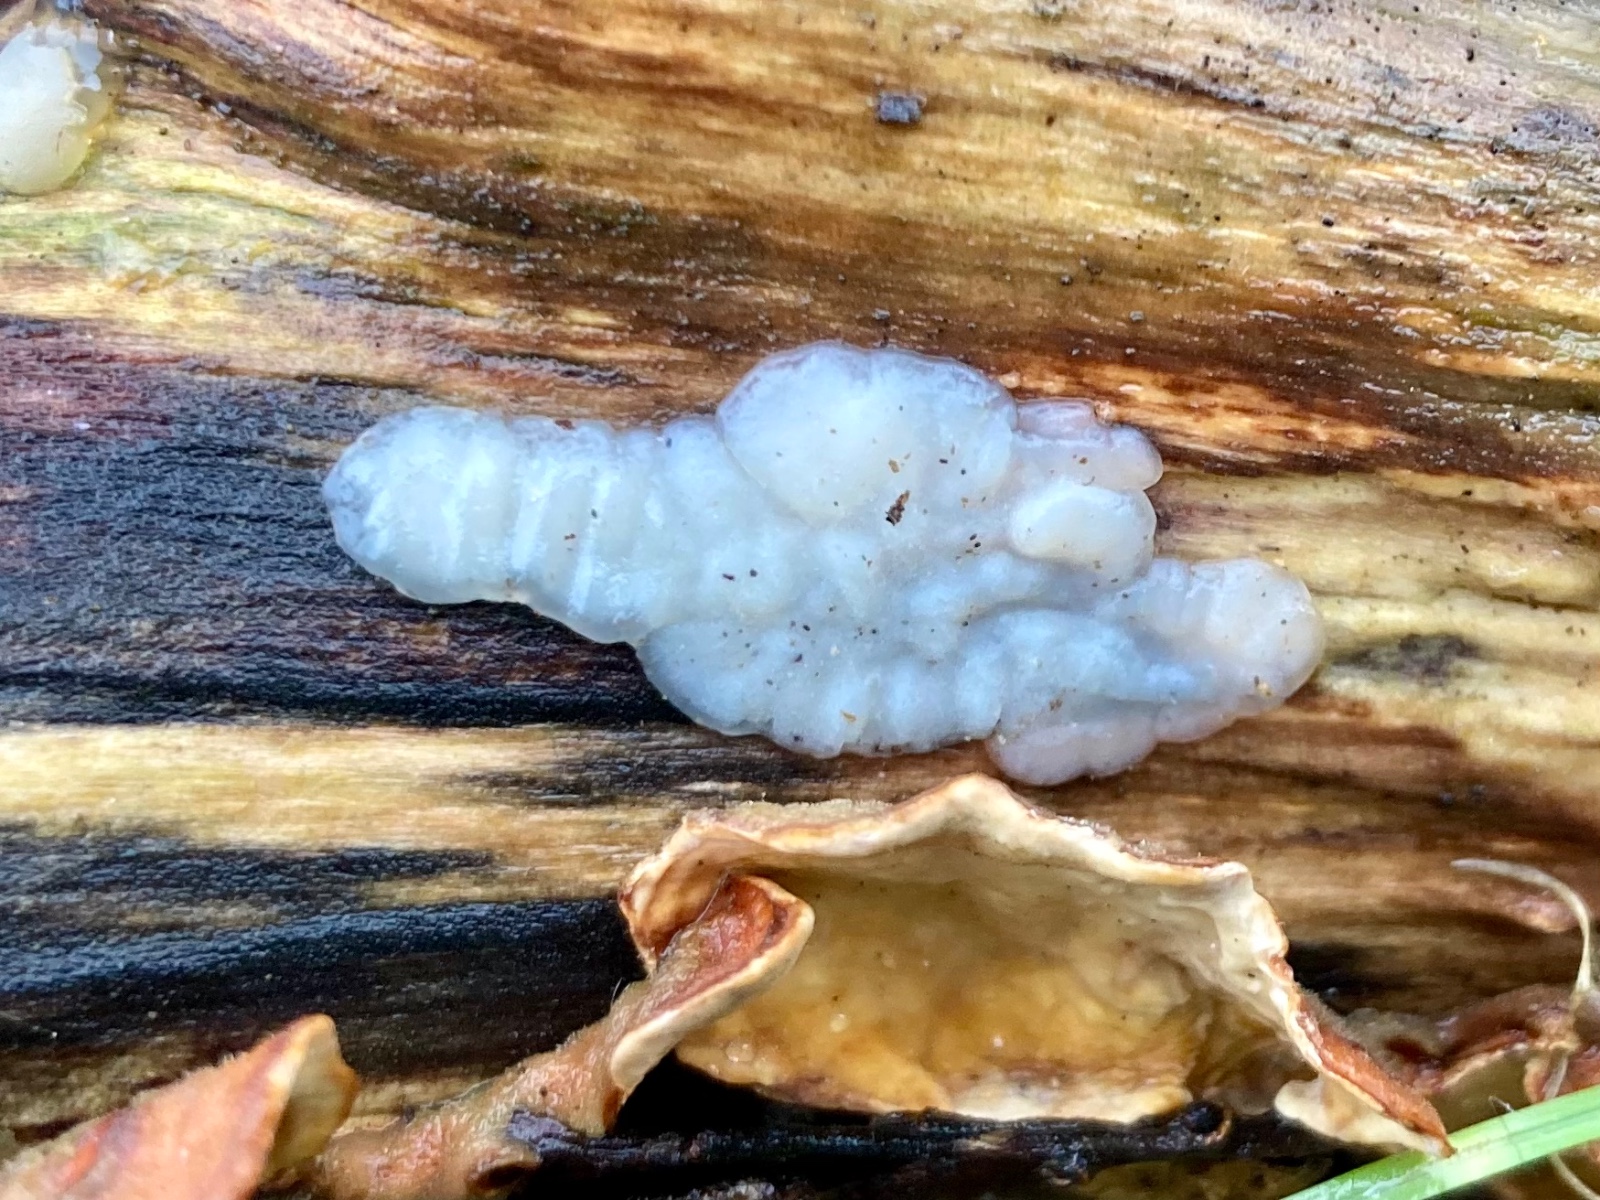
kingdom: Fungi
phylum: Basidiomycota
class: Agaricomycetes
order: Auriculariales
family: Auriculariaceae
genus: Exidia
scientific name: Exidia thuretiana
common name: hvidlig bævretop
